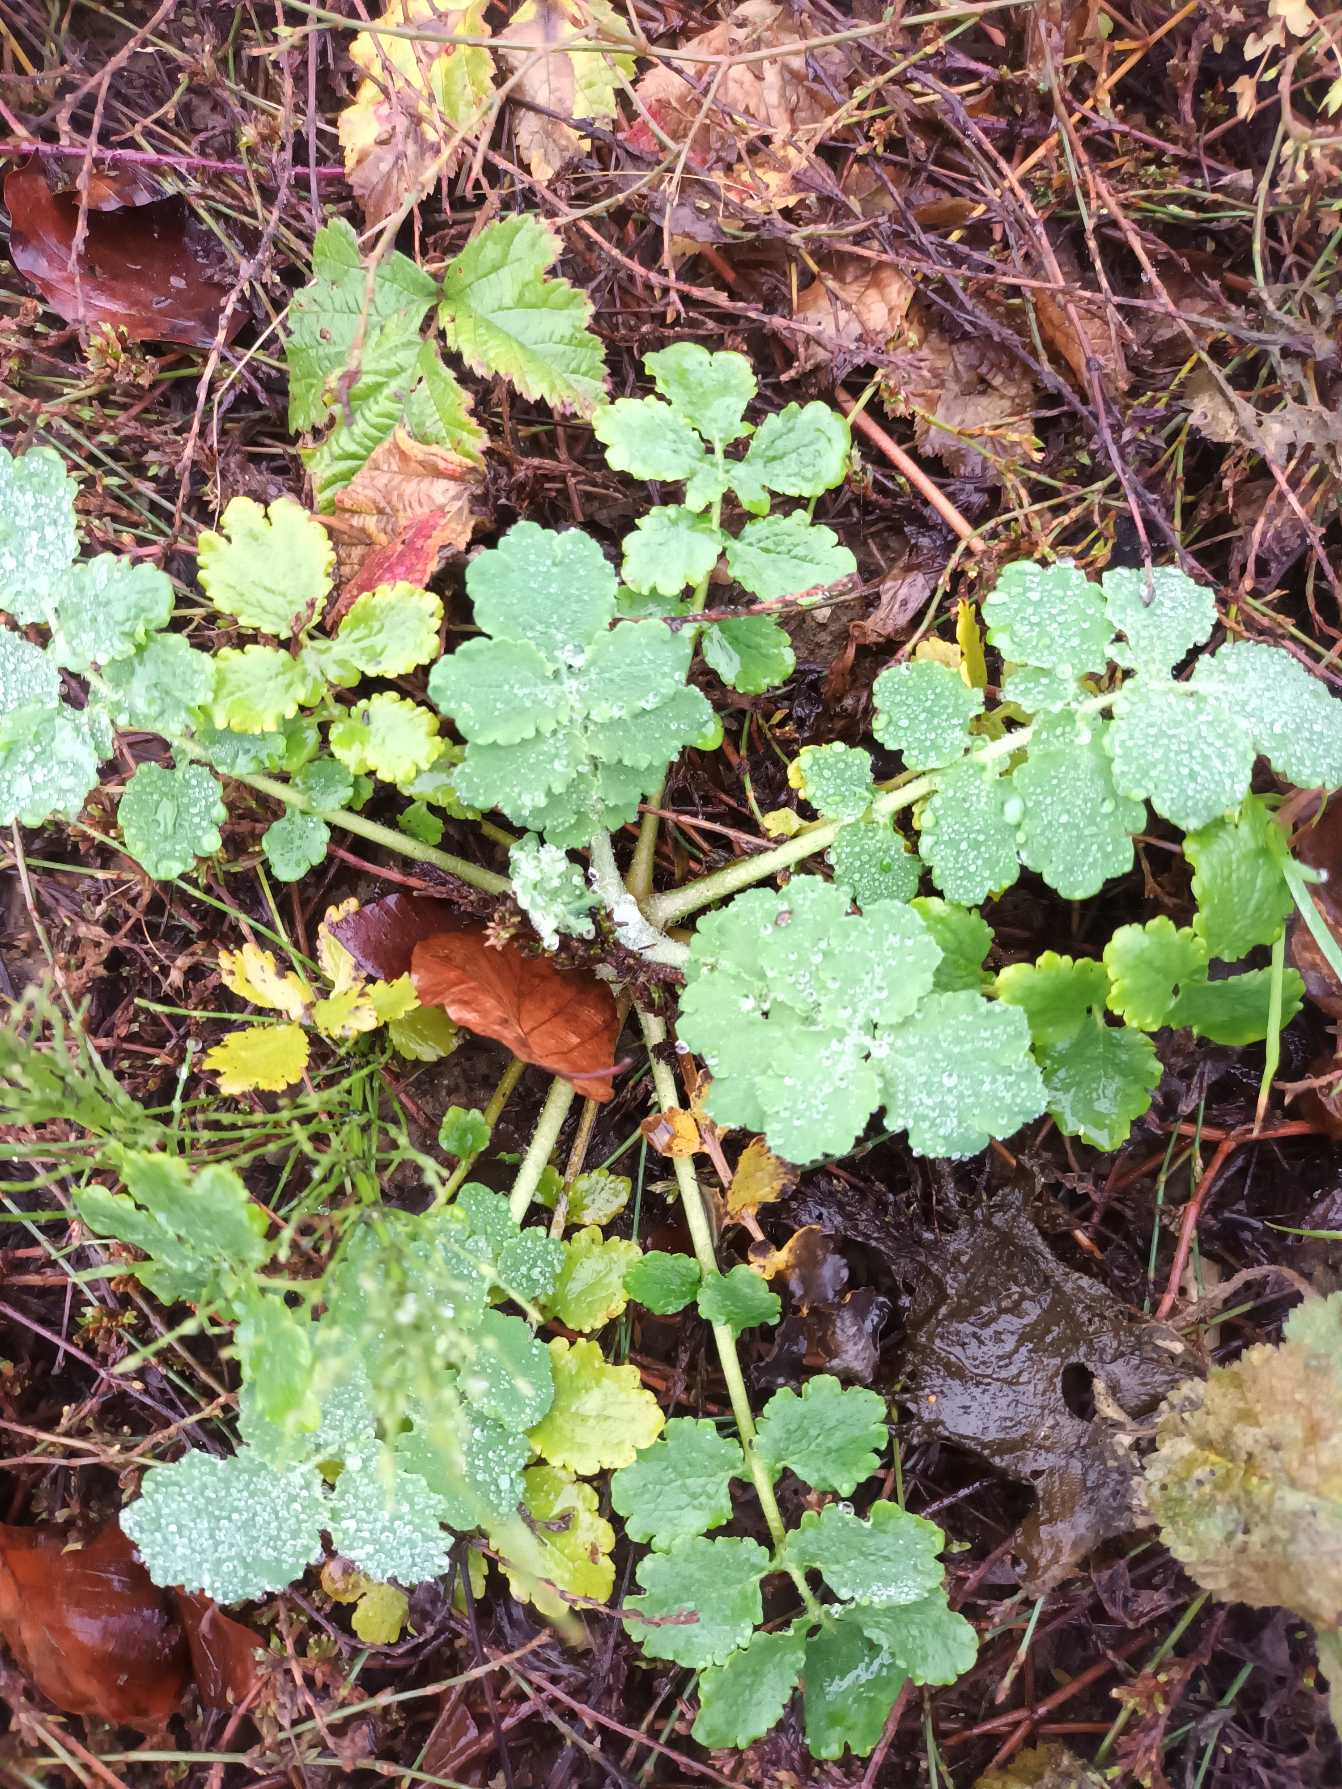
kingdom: Plantae
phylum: Tracheophyta
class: Magnoliopsida
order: Ranunculales
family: Papaveraceae
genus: Chelidonium
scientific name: Chelidonium majus
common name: Svaleurt
